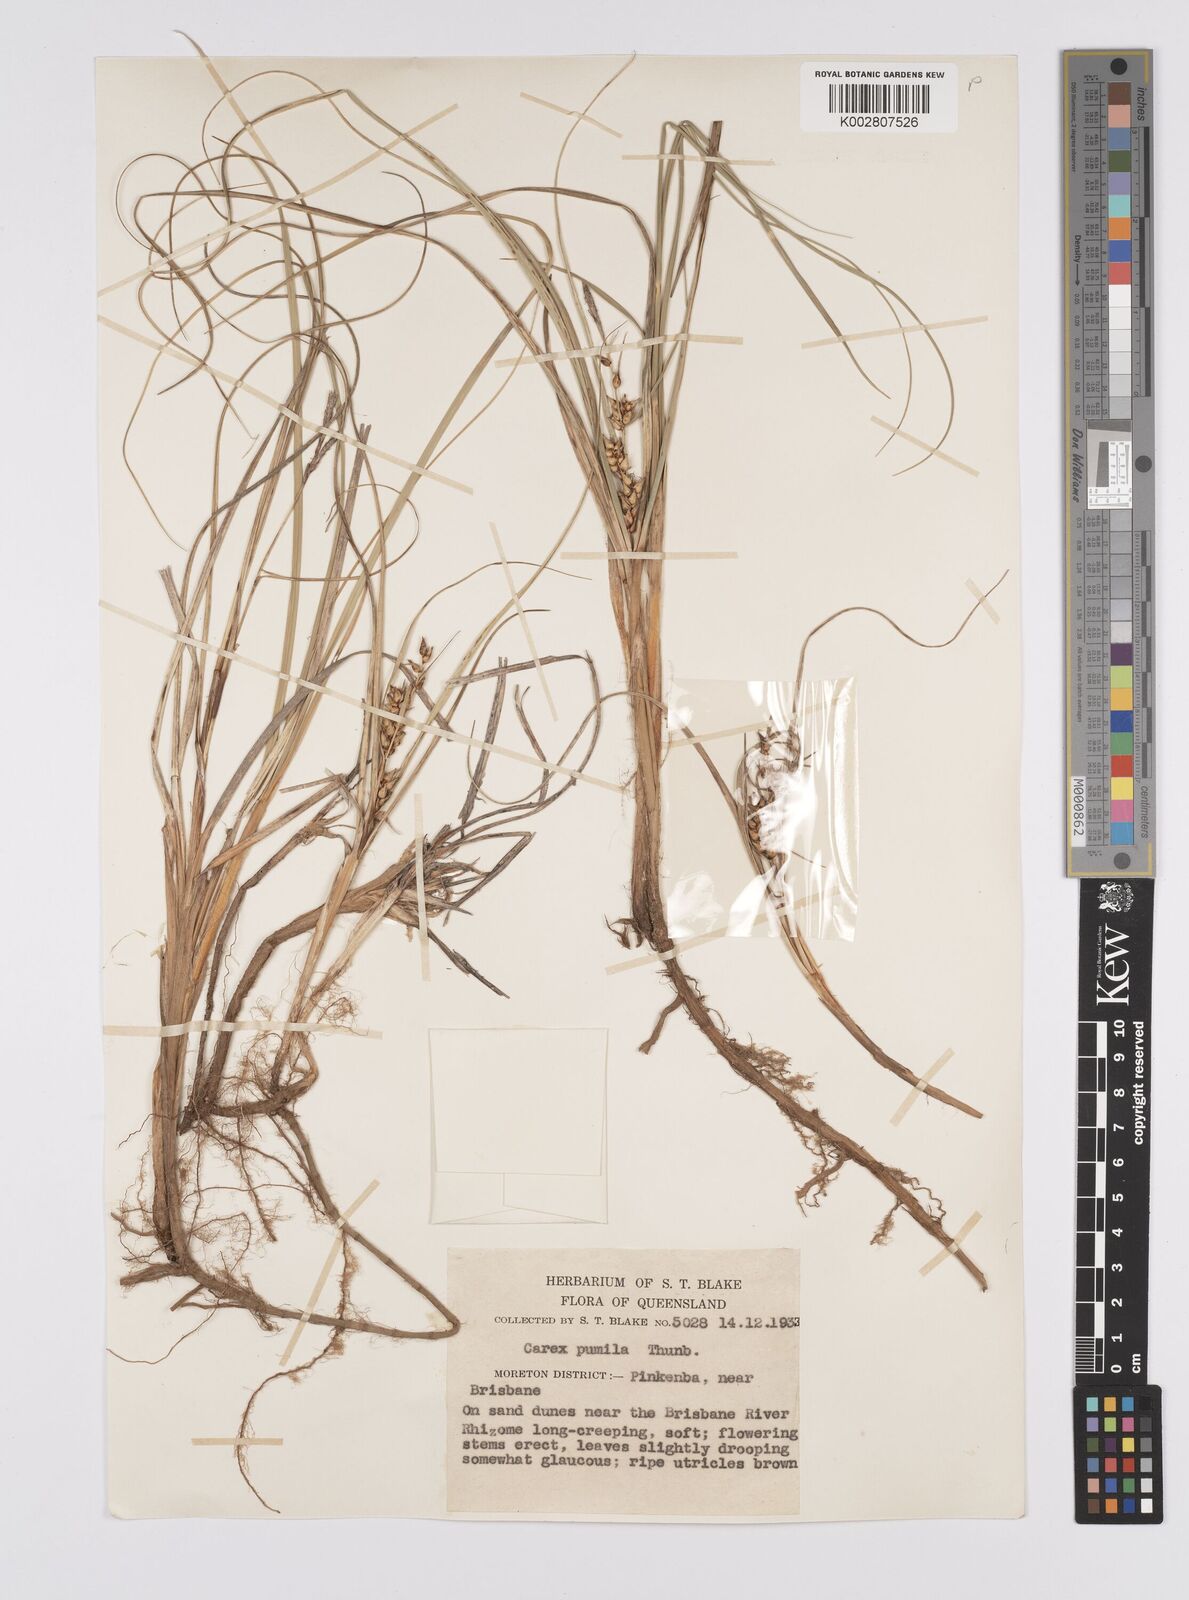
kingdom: Plantae
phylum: Tracheophyta
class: Liliopsida
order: Poales
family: Cyperaceae
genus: Carex
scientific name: Carex pumila
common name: Dwarf sedge
